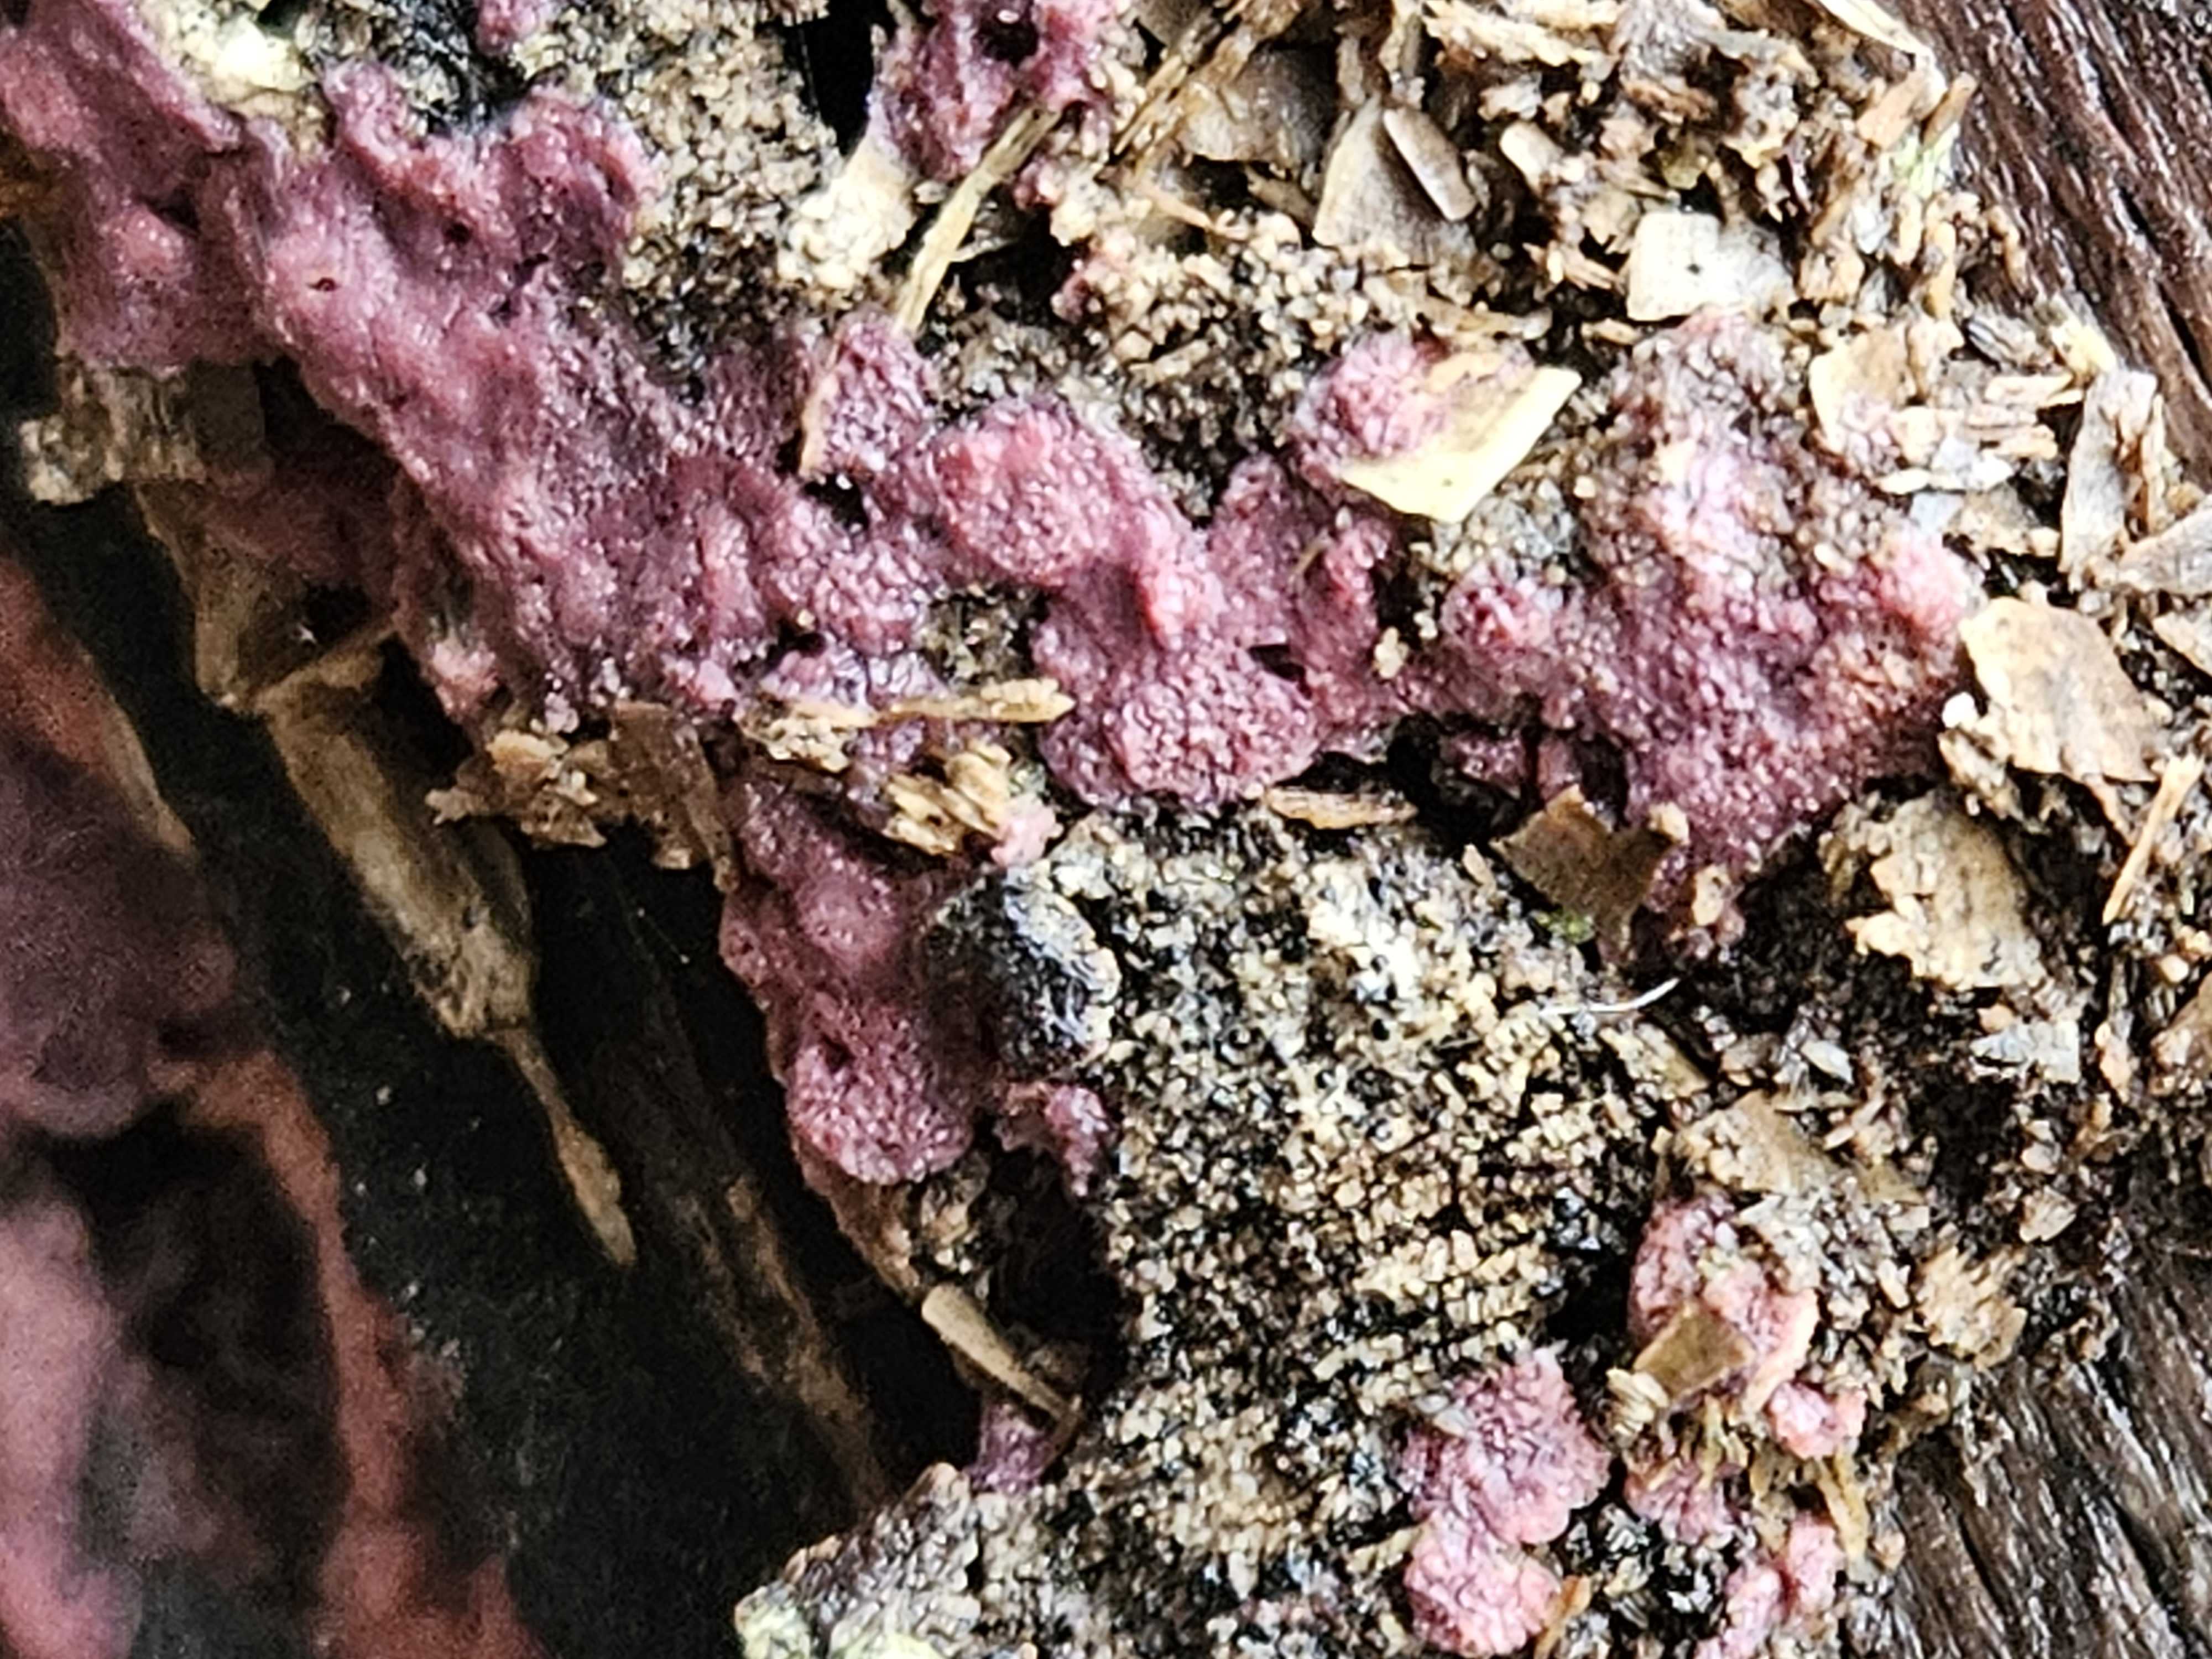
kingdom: Fungi
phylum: Basidiomycota
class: Agaricomycetes
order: Polyporales
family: Irpicaceae
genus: Ceriporia
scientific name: Ceriporia excelsa
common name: lilla voksporesvamp
